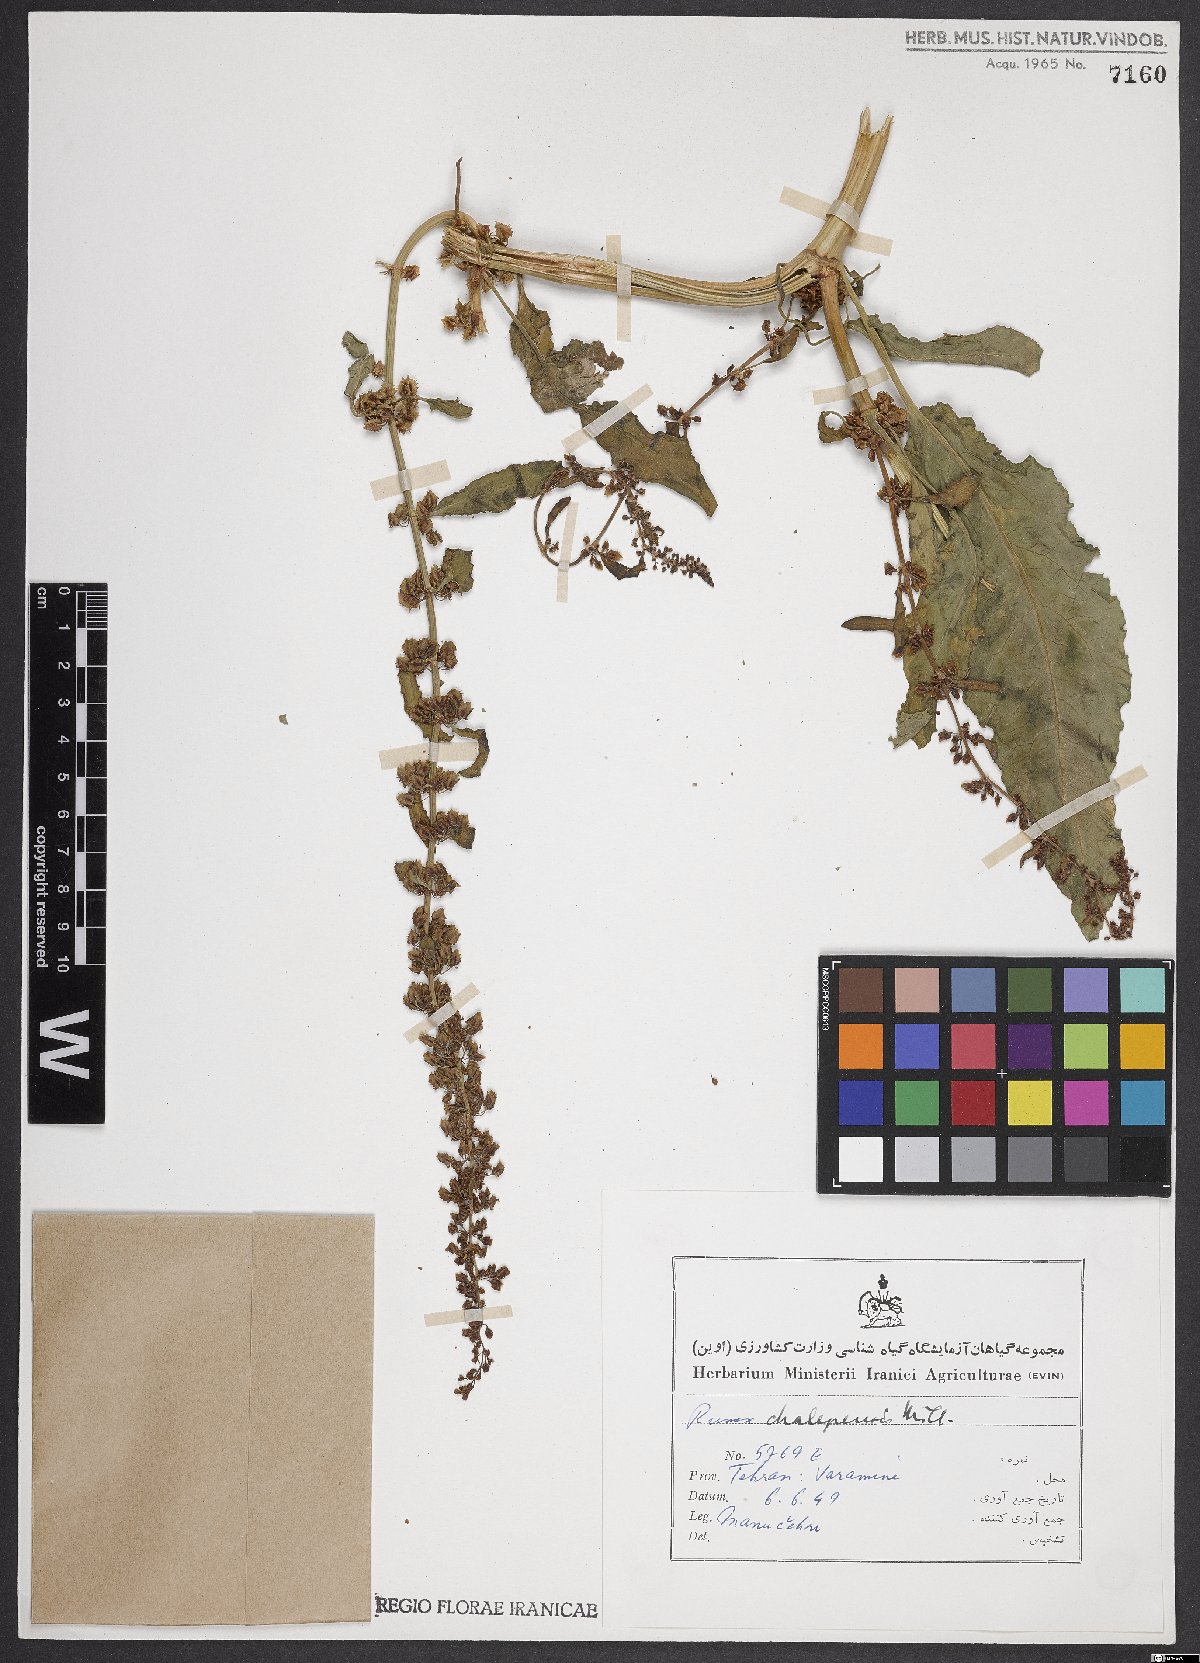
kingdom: Plantae
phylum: Tracheophyta
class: Magnoliopsida
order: Caryophyllales
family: Polygonaceae
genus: Rumex
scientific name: Rumex chalepensis
